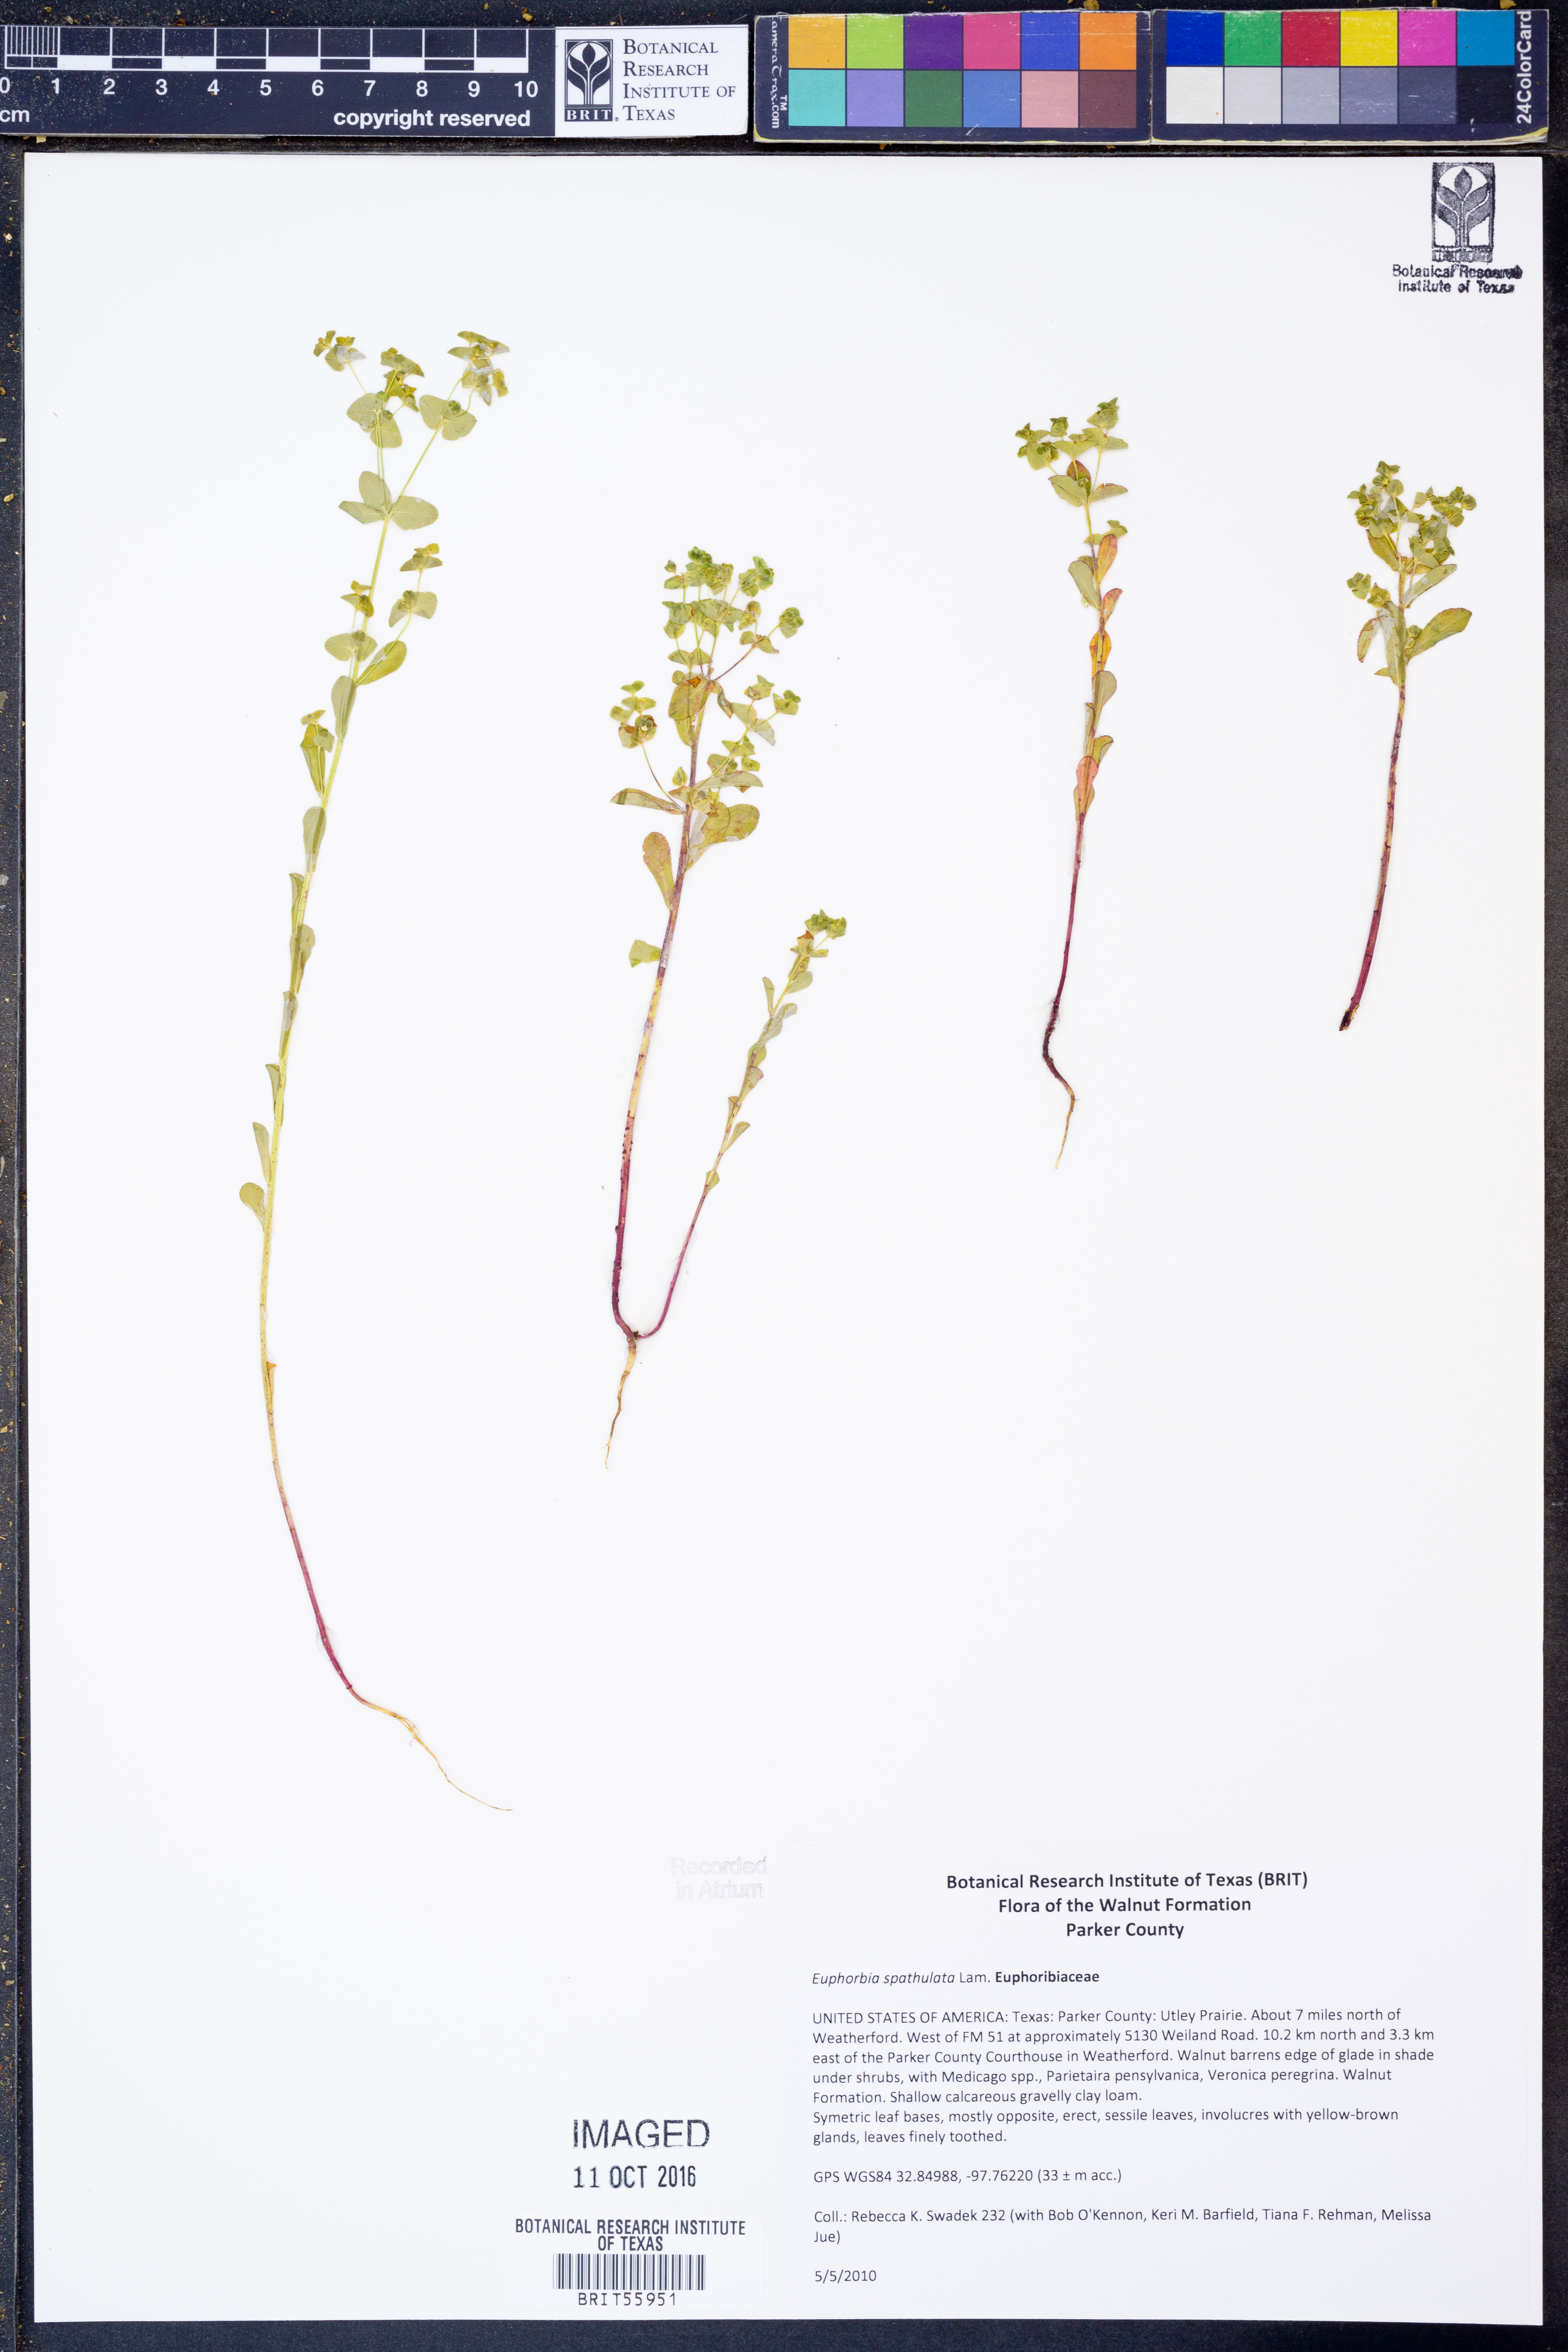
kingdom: Plantae
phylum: Tracheophyta
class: Magnoliopsida
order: Malpighiales
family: Euphorbiaceae
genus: Euphorbia
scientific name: Euphorbia spathulata
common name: Blunt spurge
